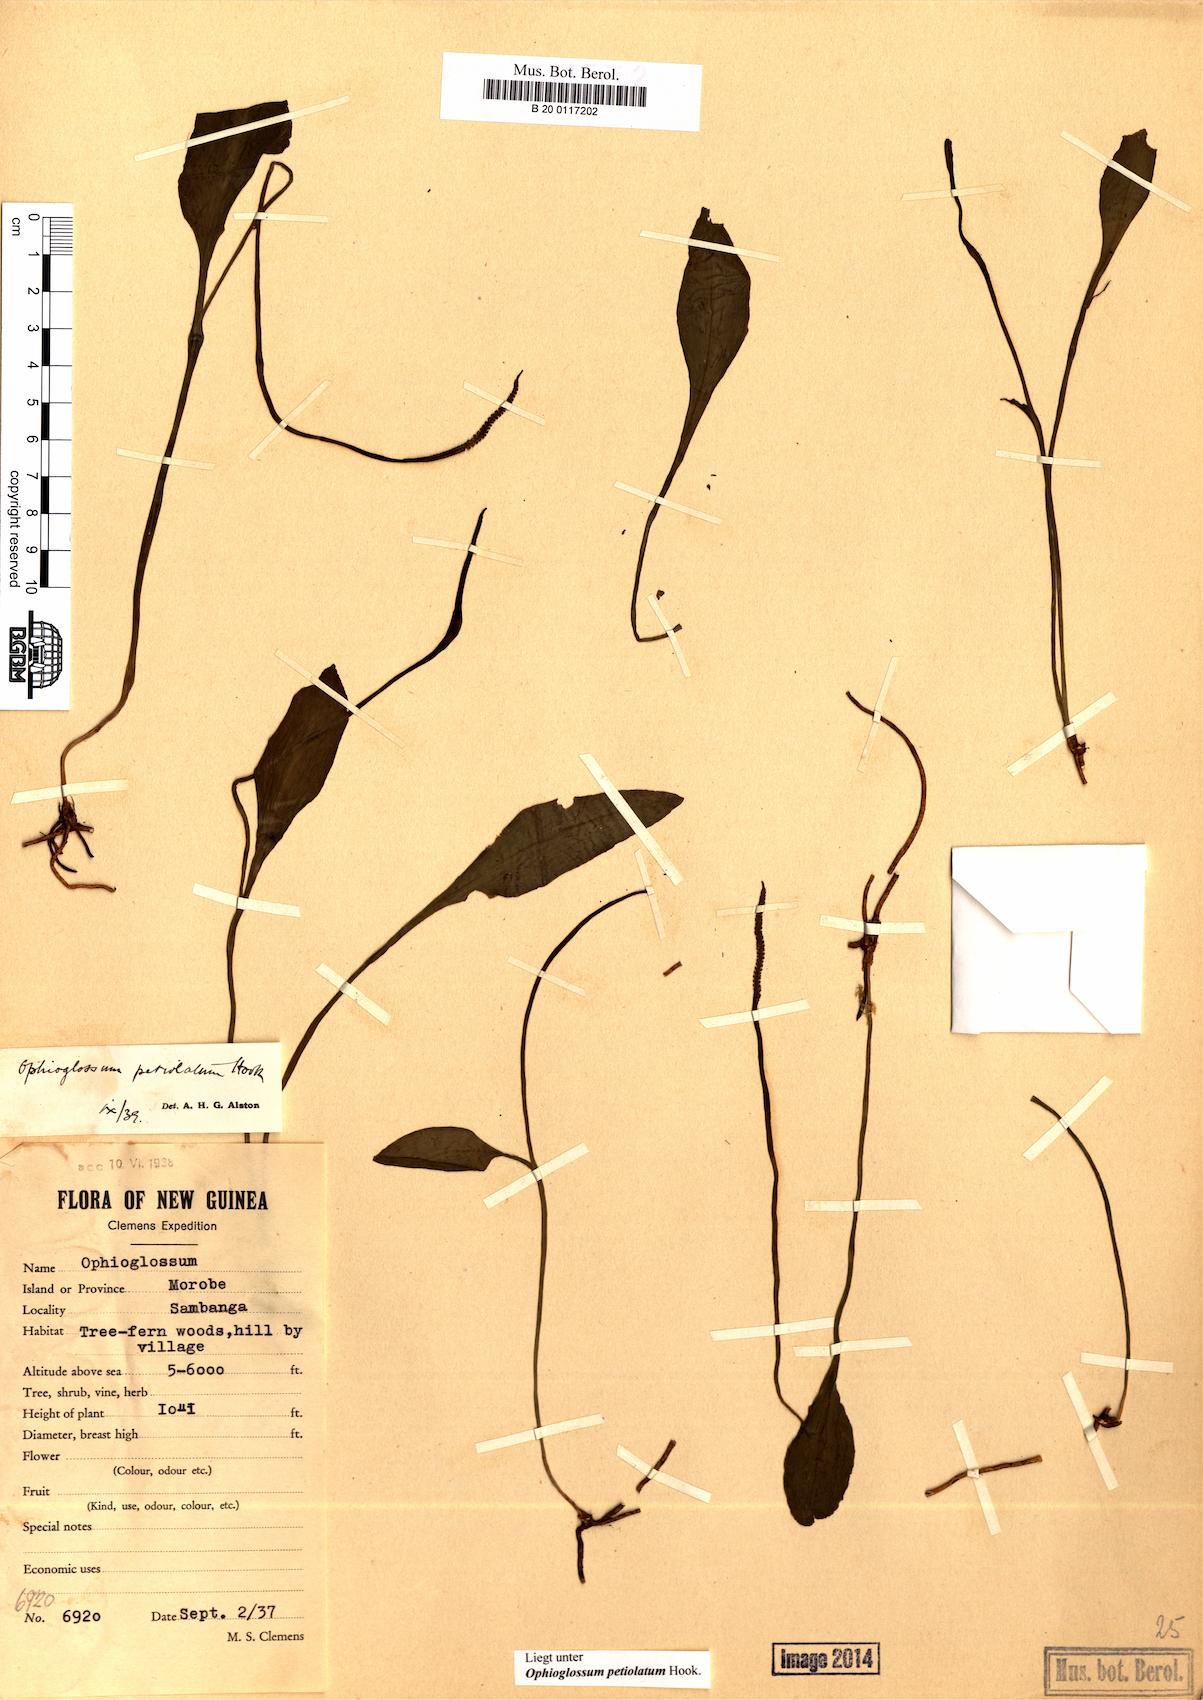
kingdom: Plantae
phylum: Tracheophyta
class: Polypodiopsida
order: Ophioglossales
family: Ophioglossaceae
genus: Ophioglossum
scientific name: Ophioglossum petiolatum
